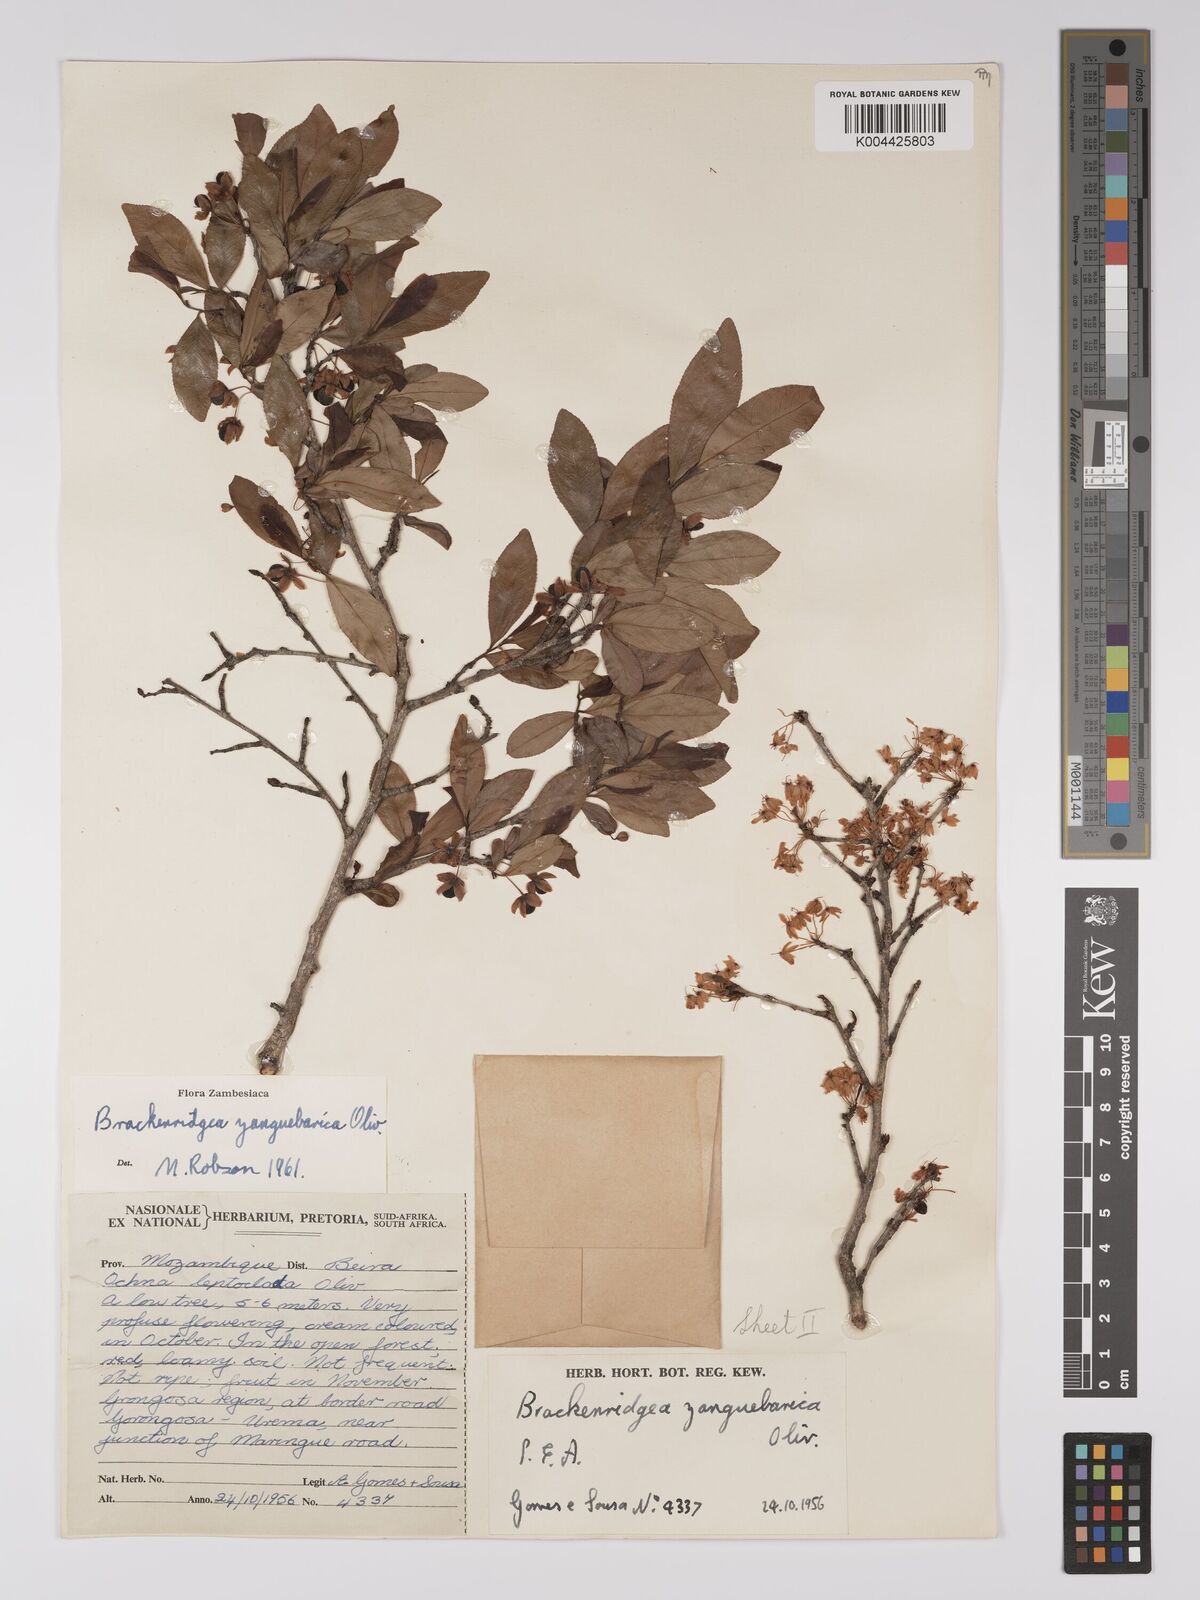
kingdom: Plantae
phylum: Tracheophyta
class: Magnoliopsida
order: Malpighiales
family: Ochnaceae
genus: Brackenridgea
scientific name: Brackenridgea zanguebarica
